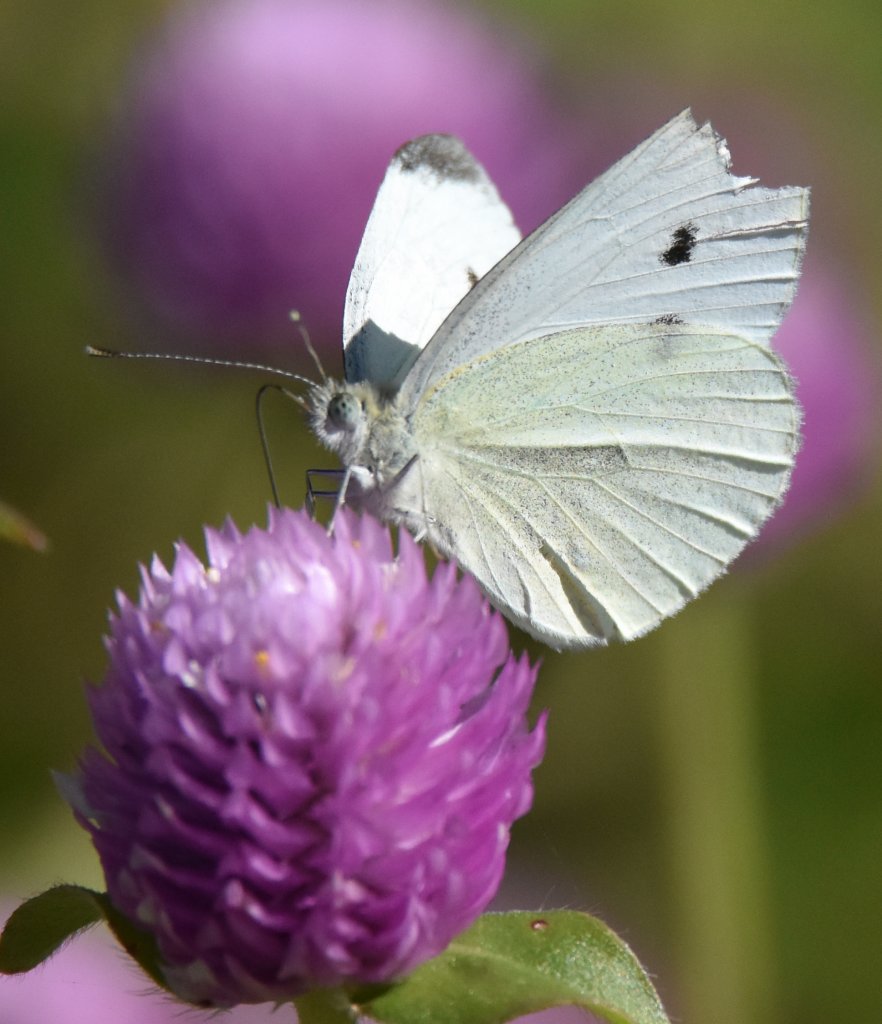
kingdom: Animalia
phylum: Arthropoda
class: Insecta
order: Lepidoptera
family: Pieridae
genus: Pieris
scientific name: Pieris rapae
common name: Cabbage White
